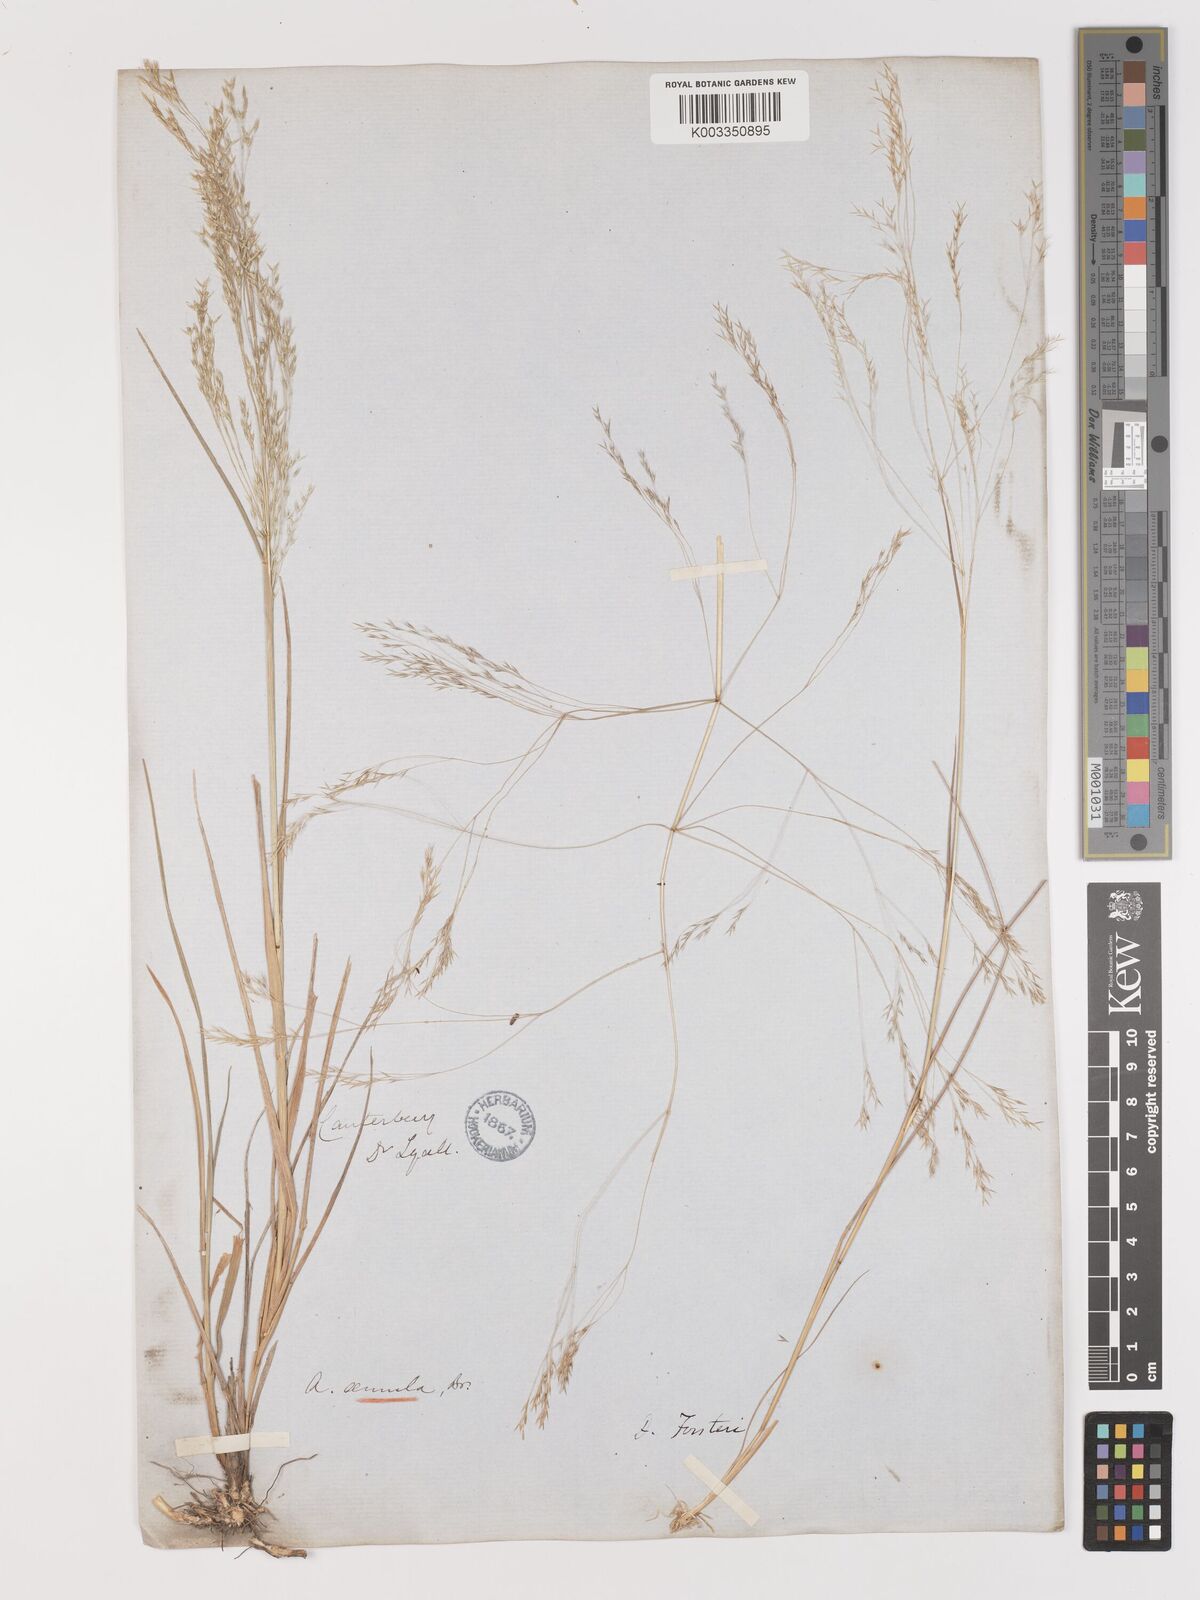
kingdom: Plantae
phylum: Tracheophyta
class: Liliopsida
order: Poales
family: Poaceae
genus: Lachnagrostis
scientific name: Lachnagrostis filiformis
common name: Bentgrass
